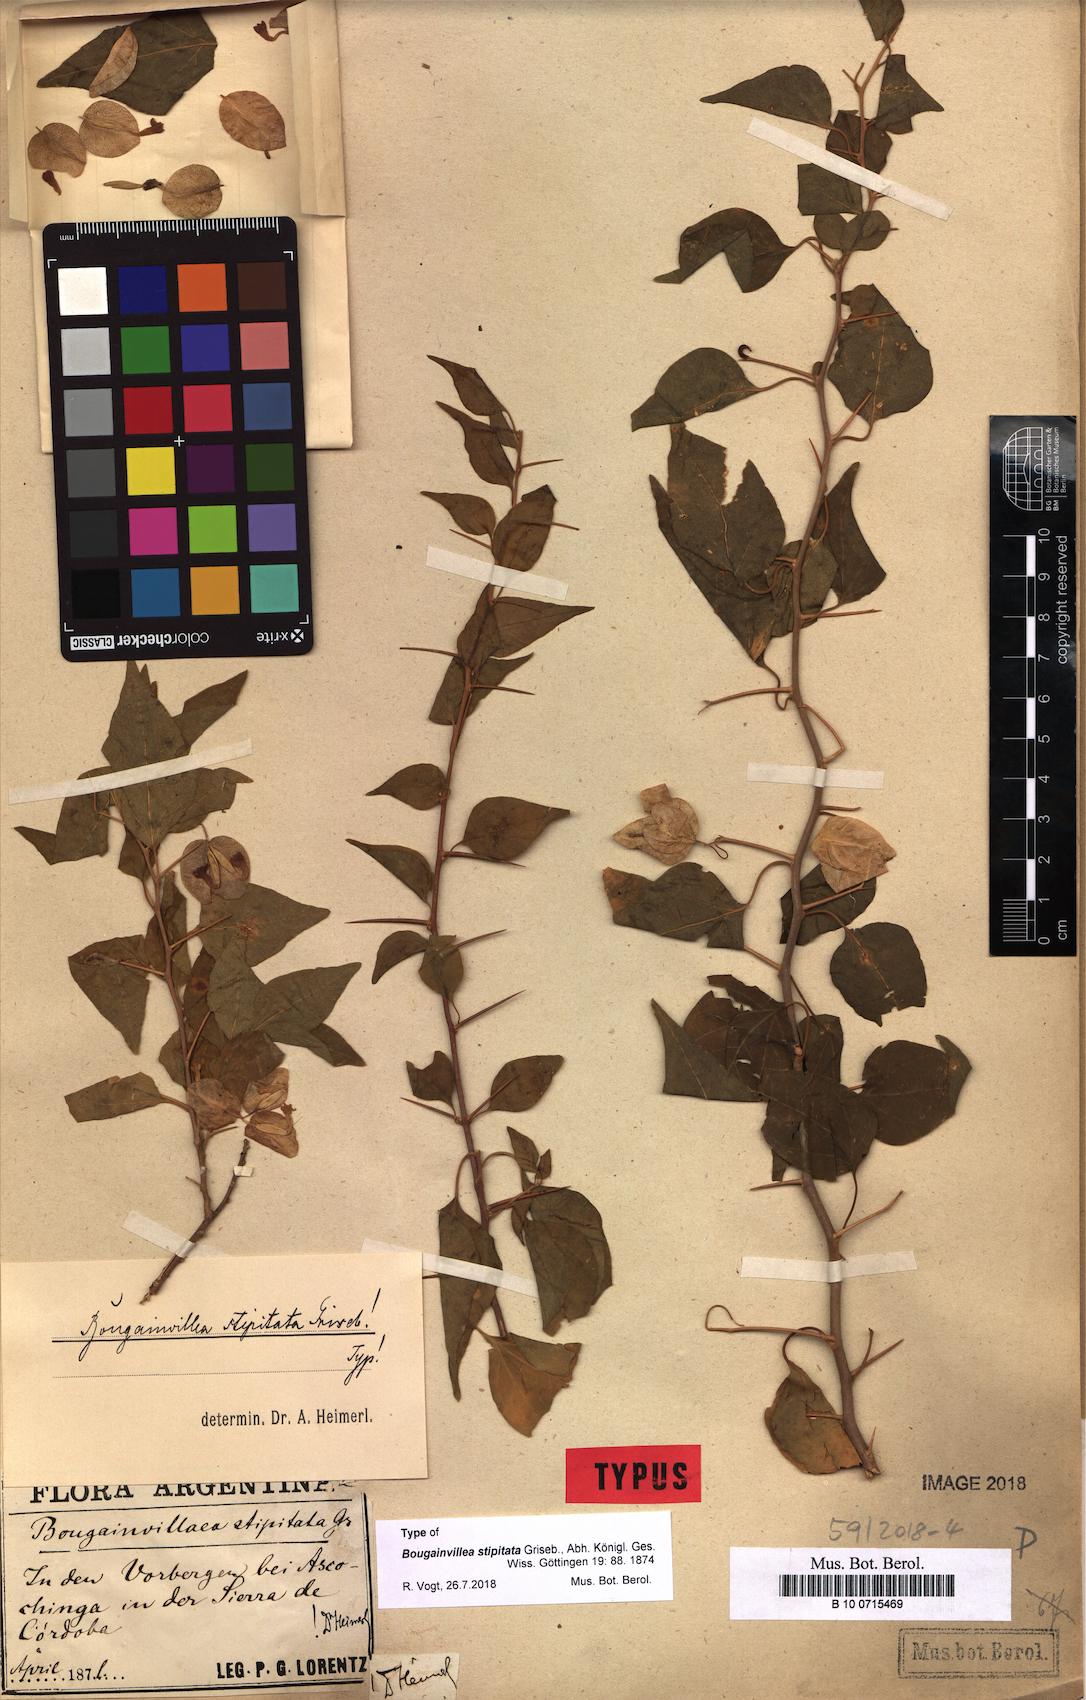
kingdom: Plantae
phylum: Tracheophyta
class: Magnoliopsida
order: Caryophyllales
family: Nyctaginaceae
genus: Bougainvillea
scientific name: Bougainvillea stipitata
